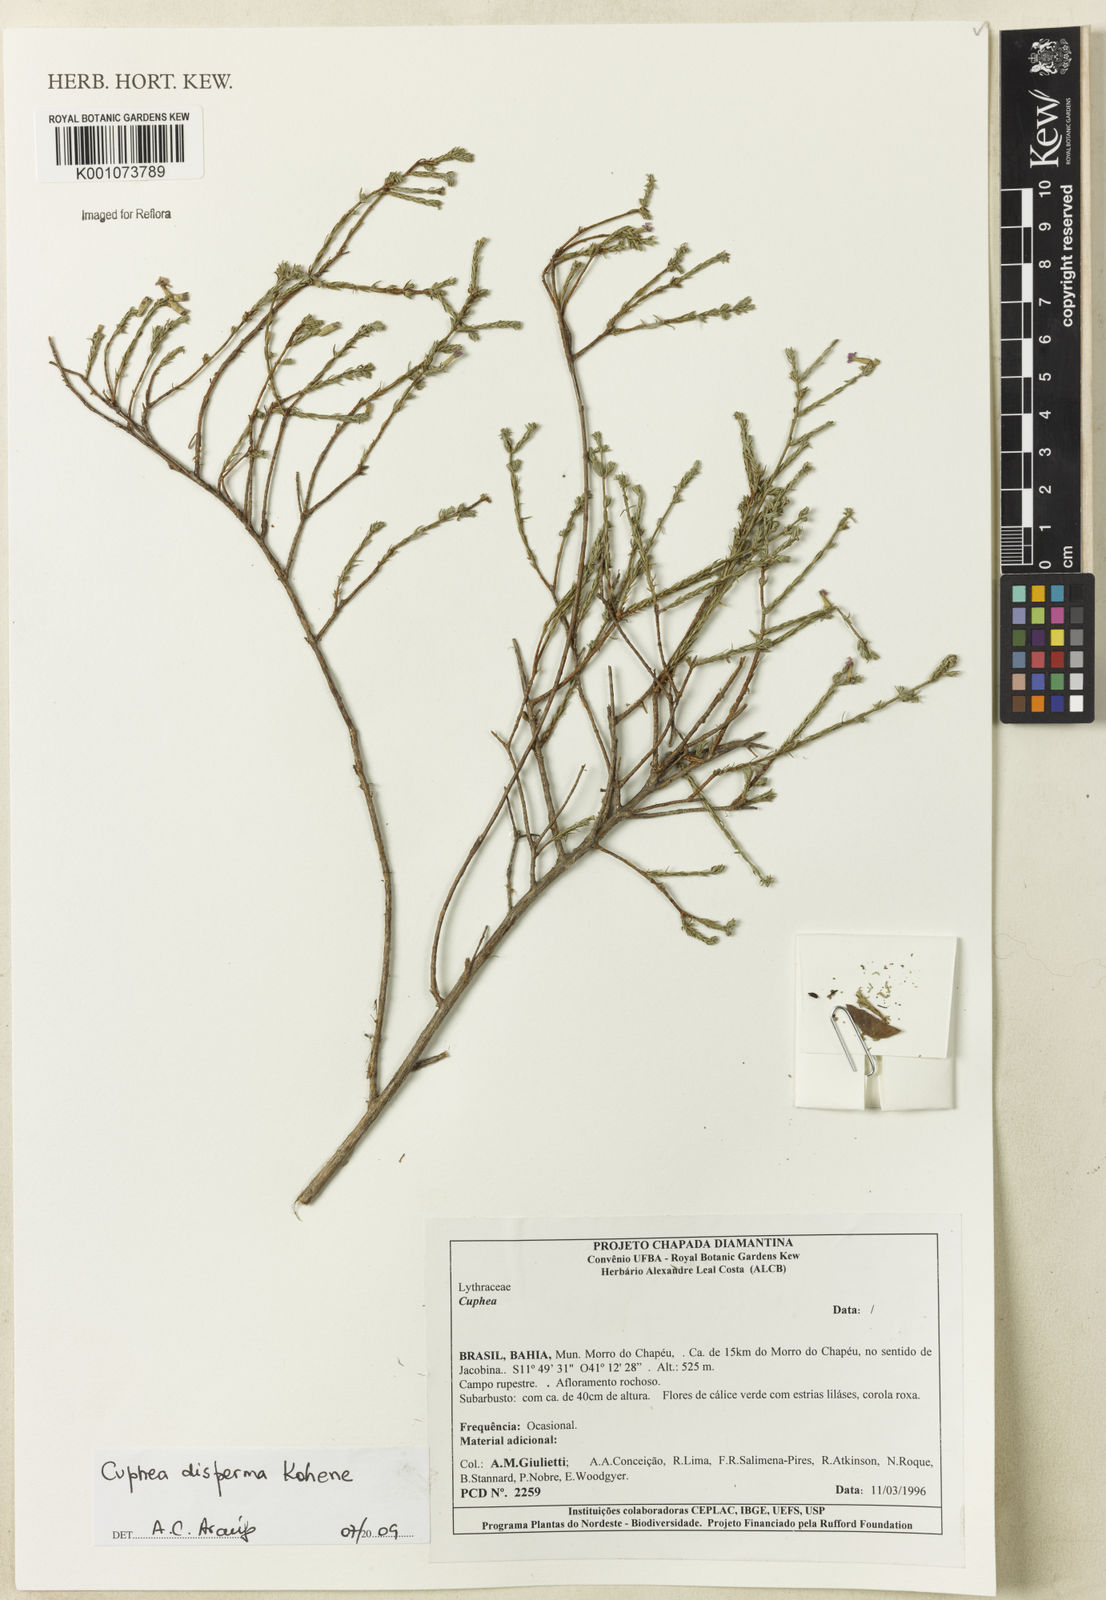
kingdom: Plantae
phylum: Tracheophyta
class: Magnoliopsida
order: Myrtales
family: Lythraceae
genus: Cuphea
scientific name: Cuphea disperma
